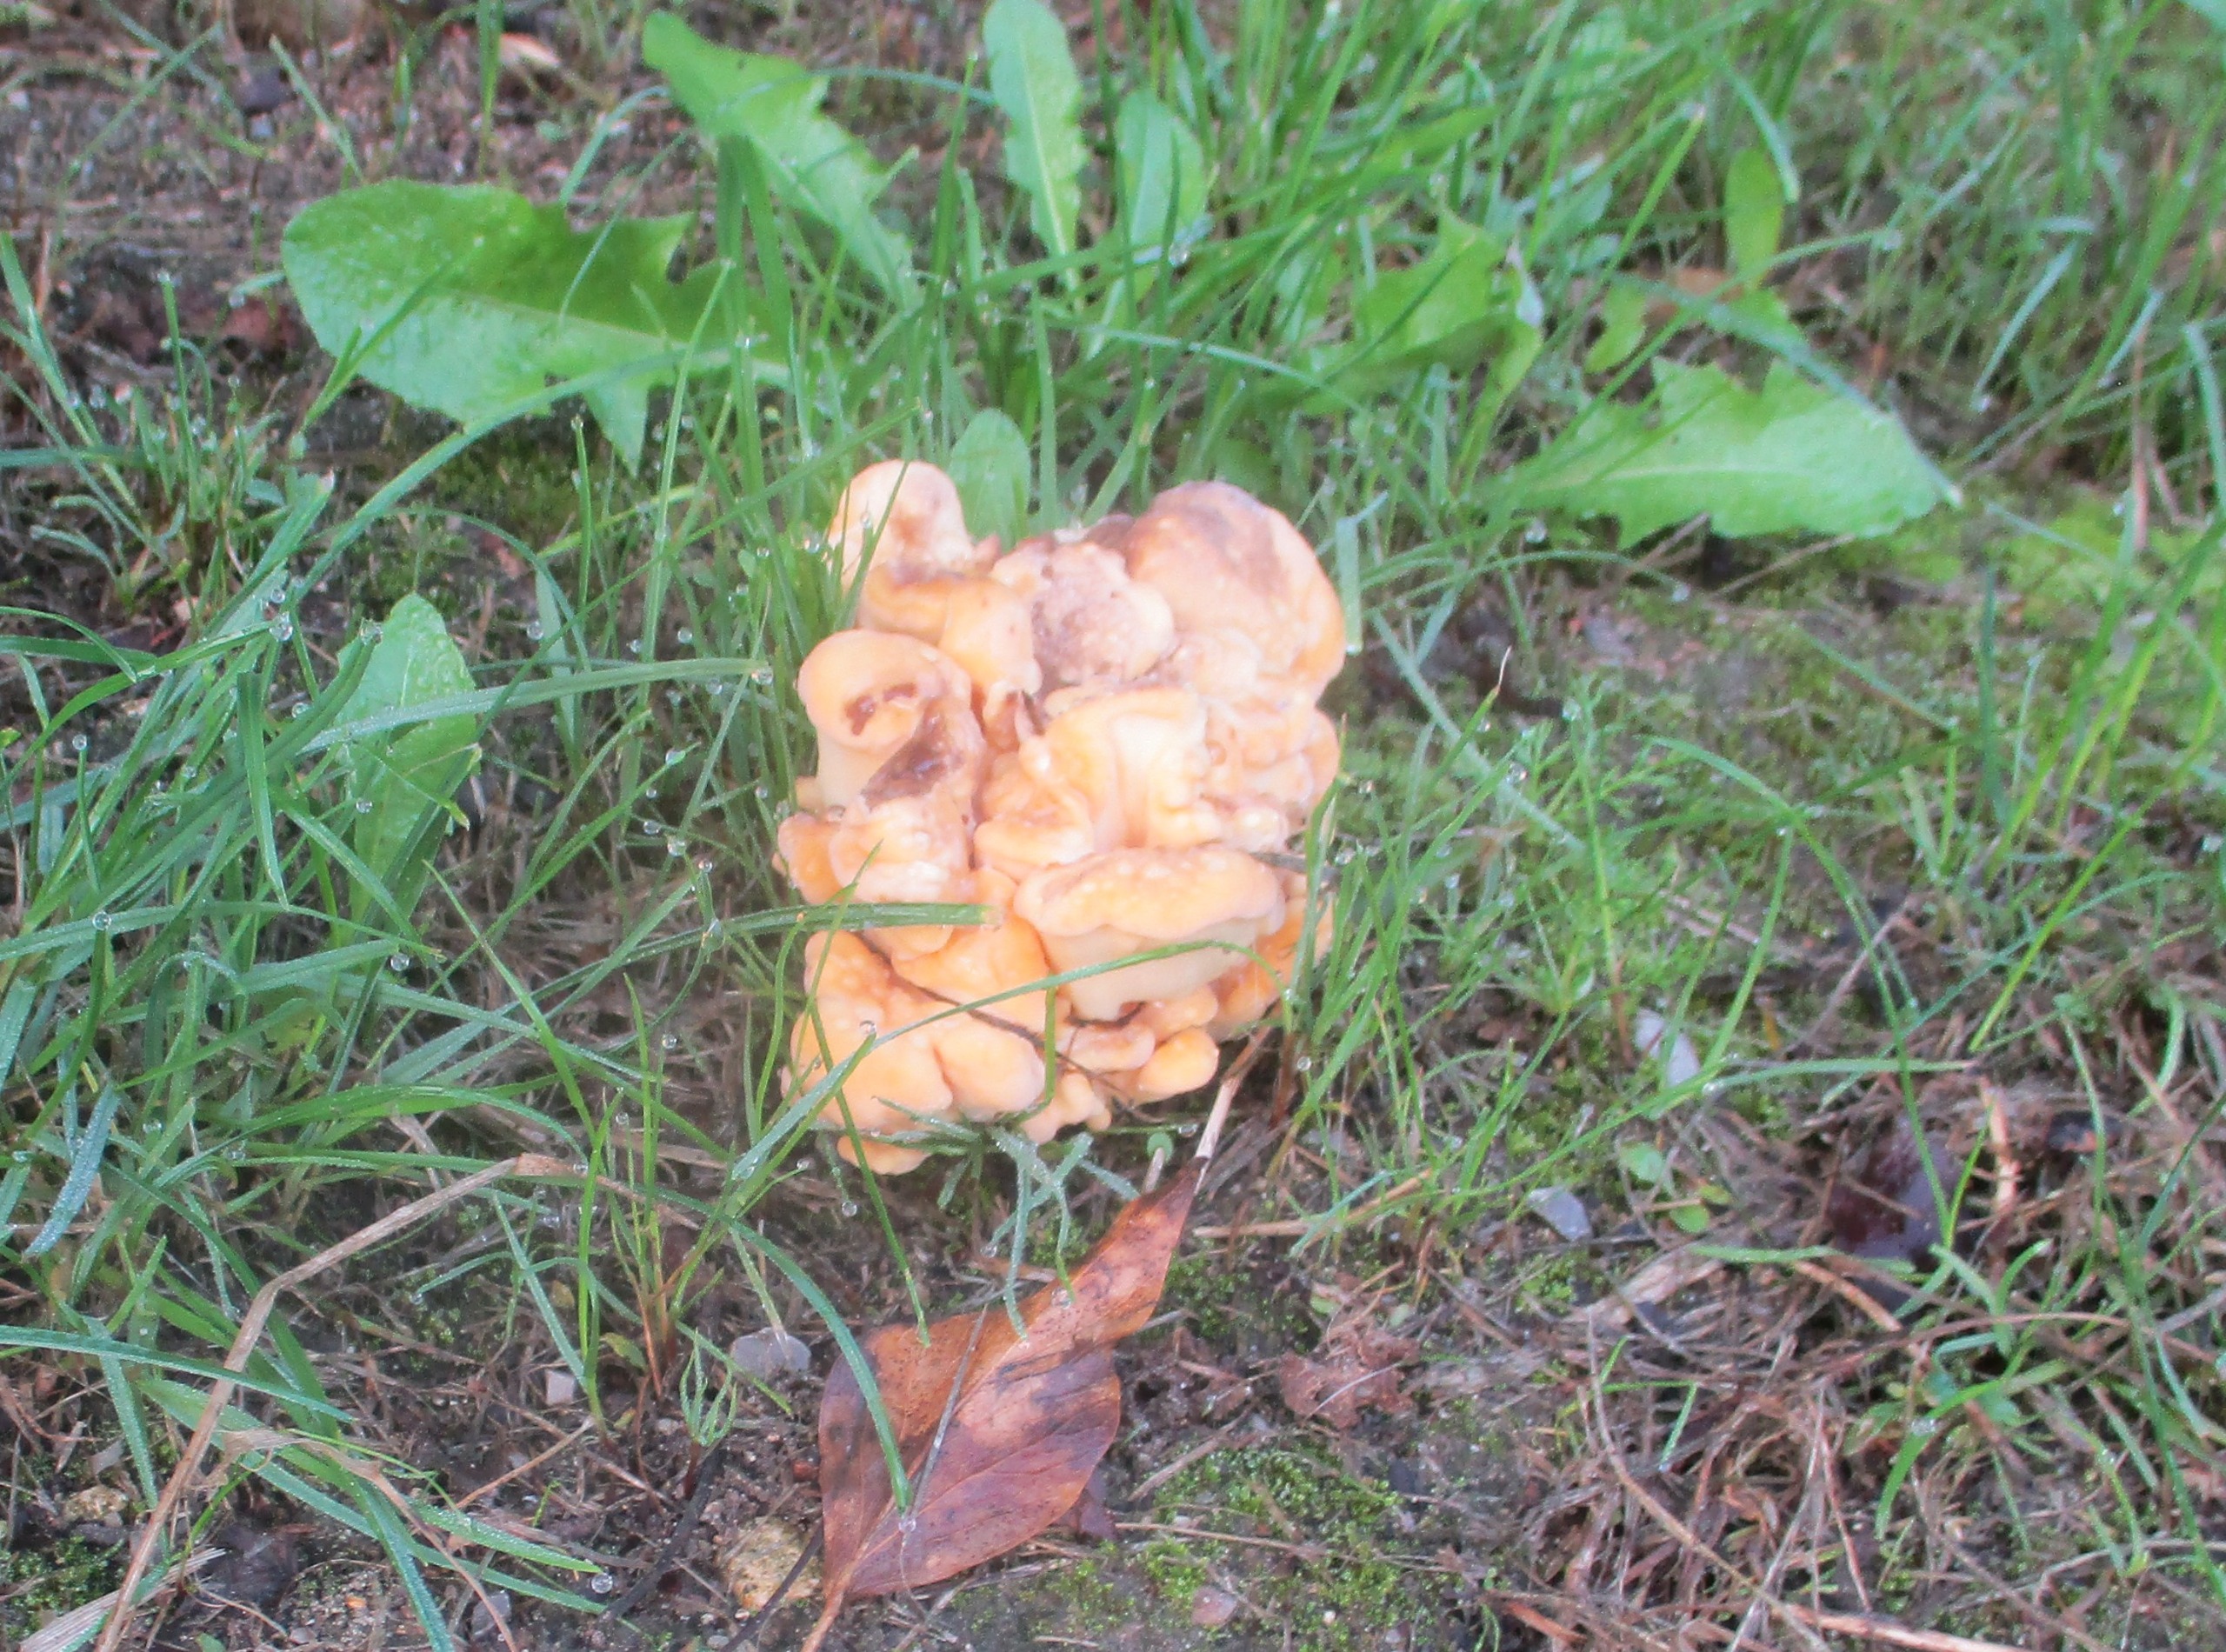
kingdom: Fungi
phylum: Basidiomycota
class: Agaricomycetes
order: Polyporales
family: Laetiporaceae
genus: Laetiporus
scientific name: Laetiporus sulphureus
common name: Svovlporesvamp
